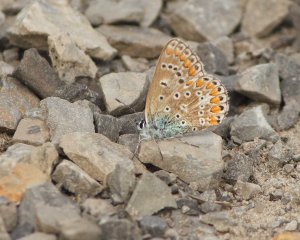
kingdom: Animalia
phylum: Arthropoda
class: Insecta
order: Lepidoptera
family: Lycaenidae
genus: Polyommatus
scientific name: Polyommatus icarus
